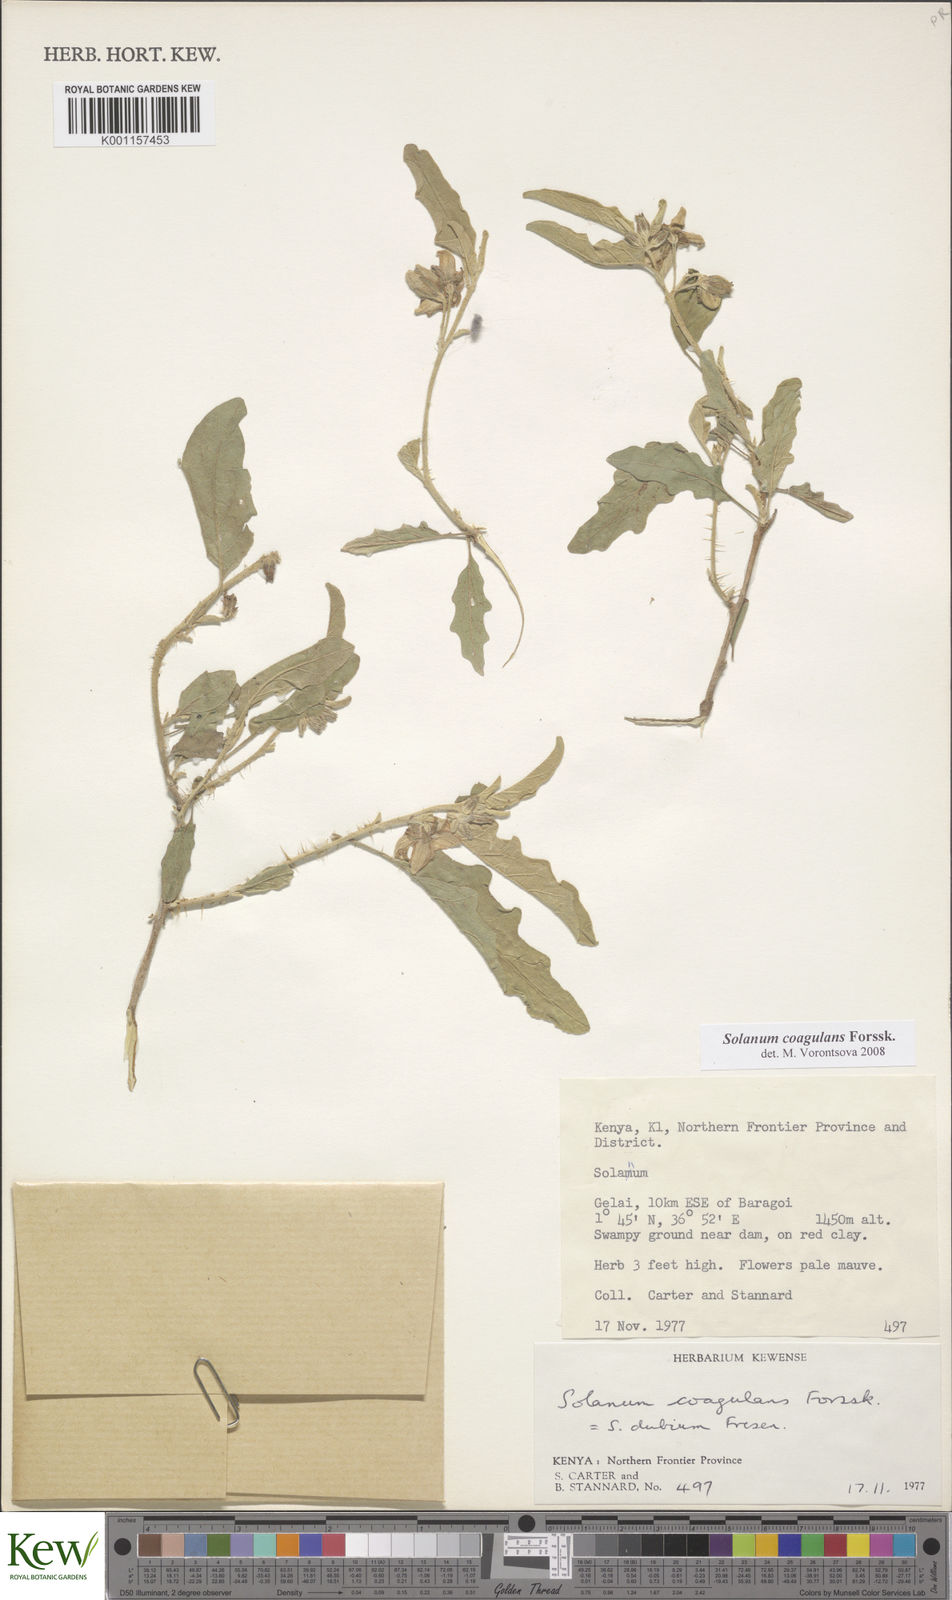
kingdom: Plantae
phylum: Tracheophyta
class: Magnoliopsida
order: Solanales
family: Solanaceae
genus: Solanum
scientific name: Solanum coagulans
